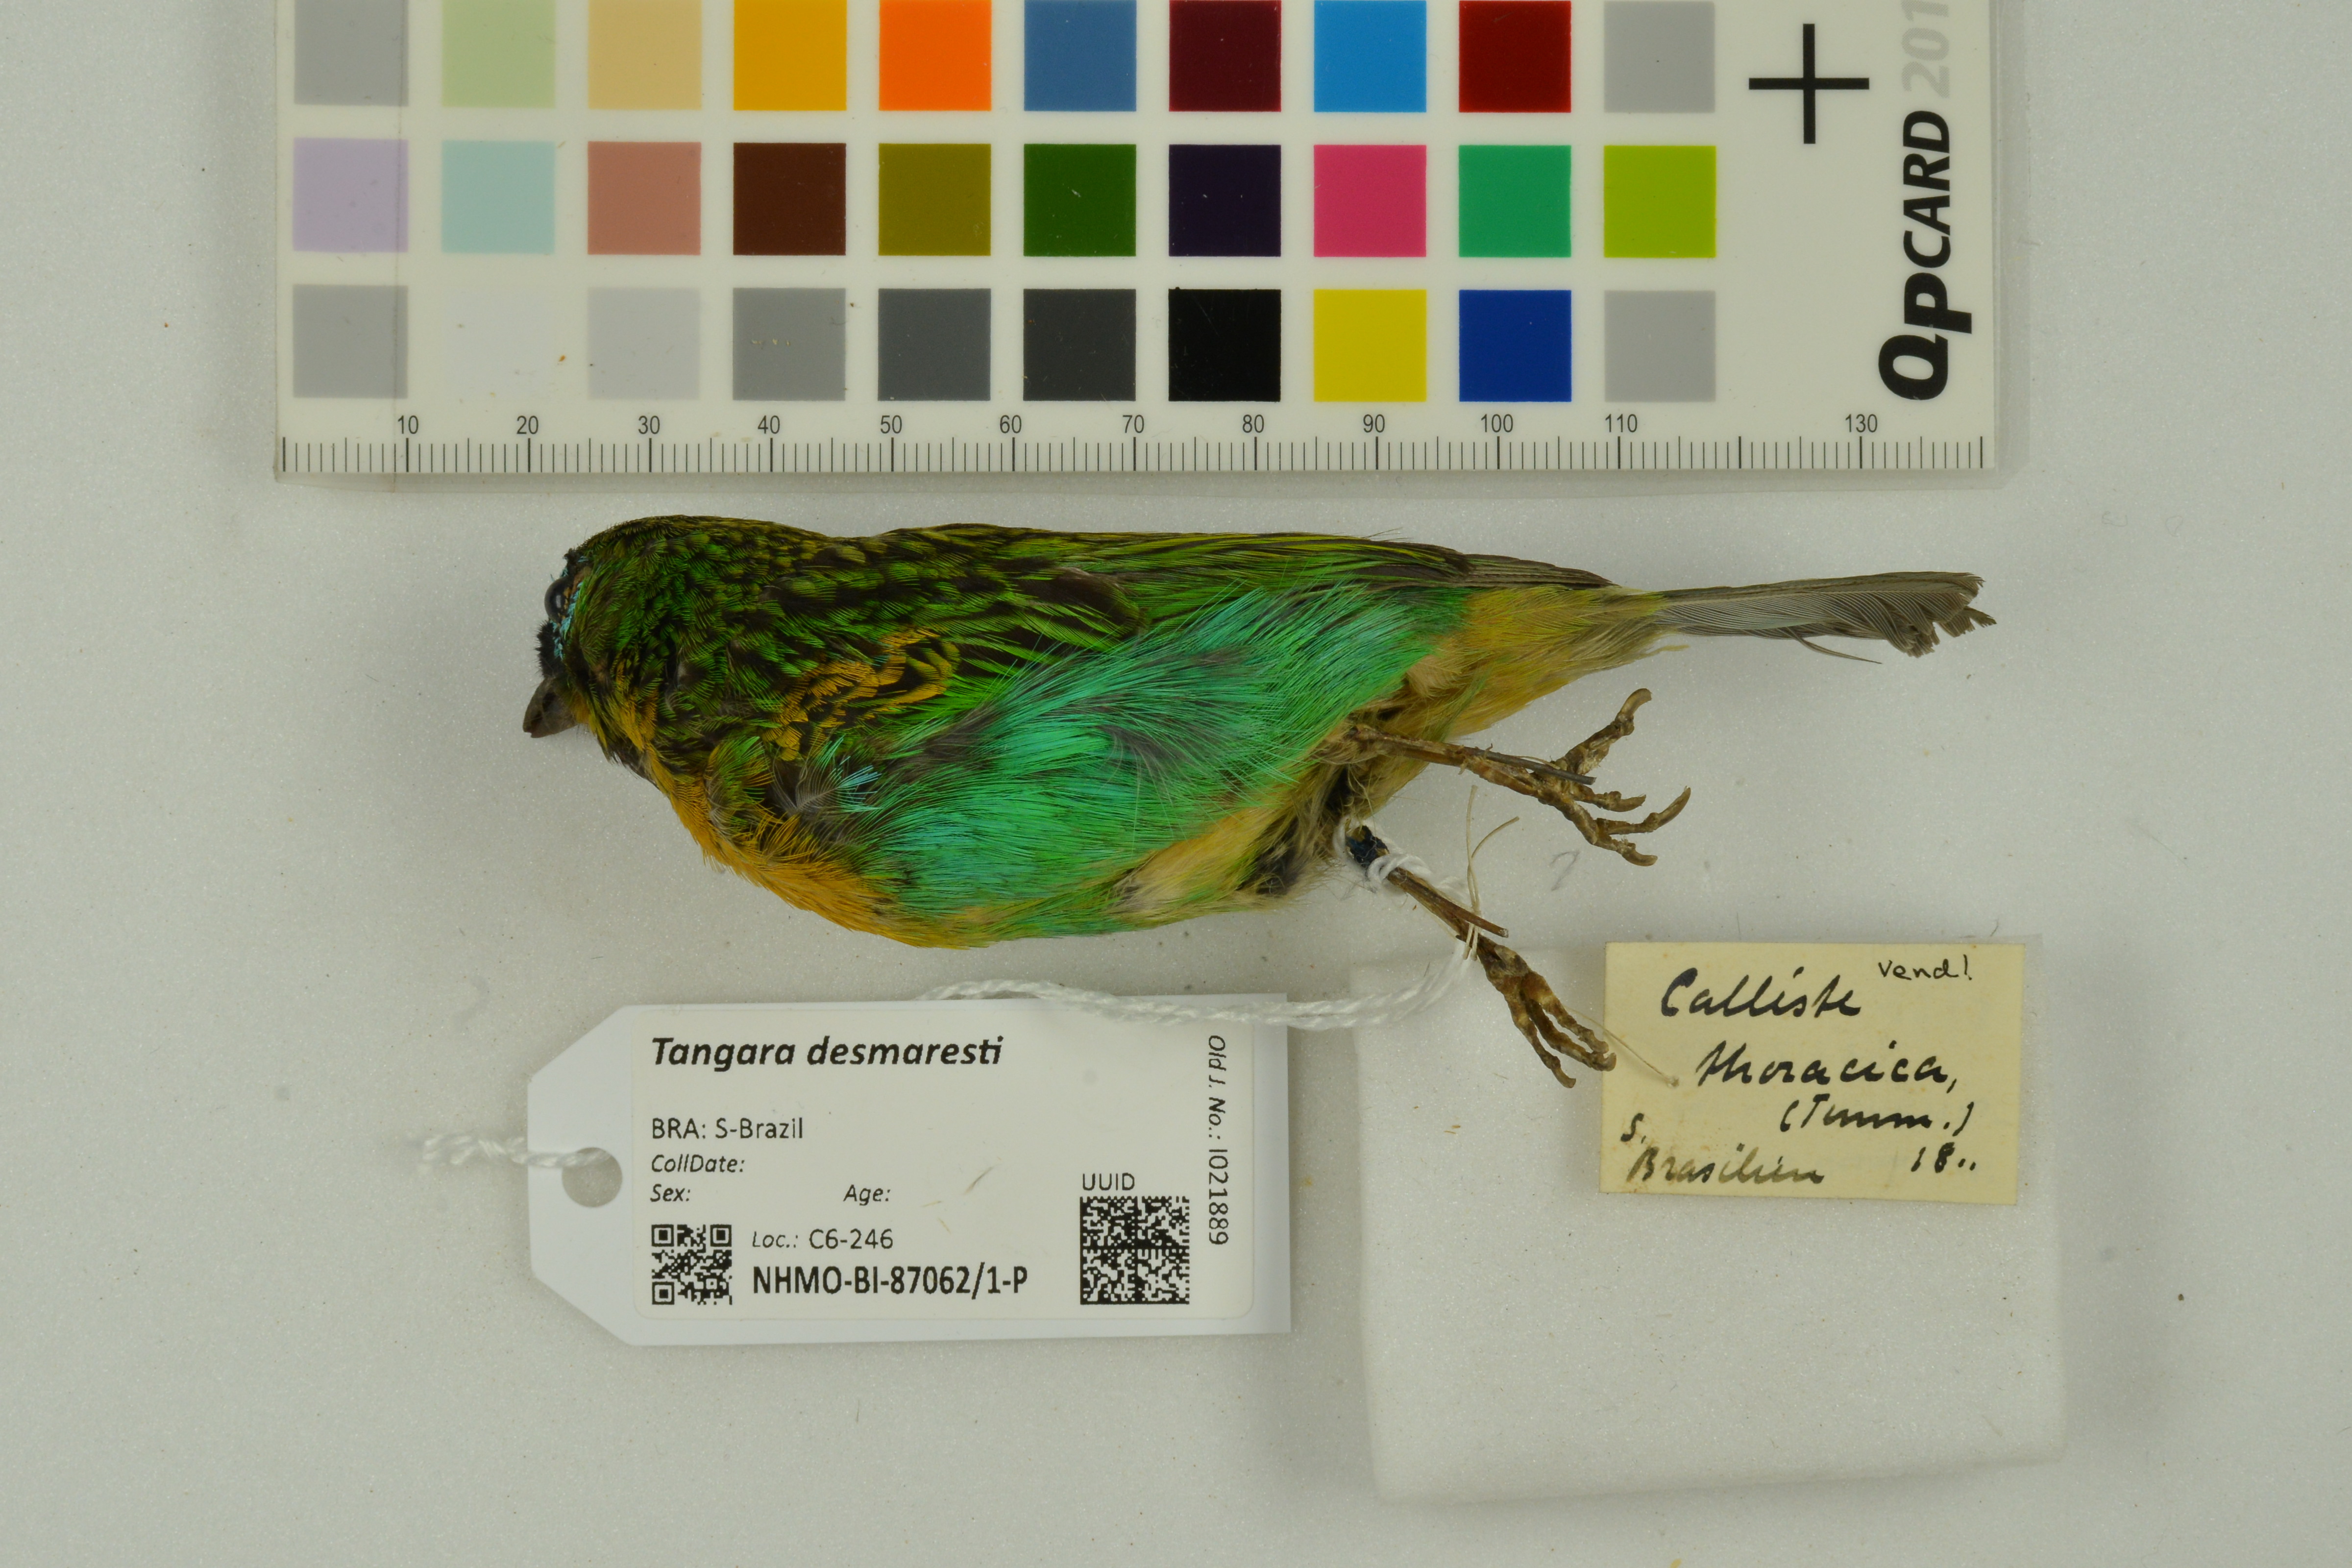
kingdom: Animalia
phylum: Chordata
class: Aves
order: Passeriformes
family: Thraupidae
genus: Tangara
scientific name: Tangara desmaresti
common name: Brassy-breasted tanager
